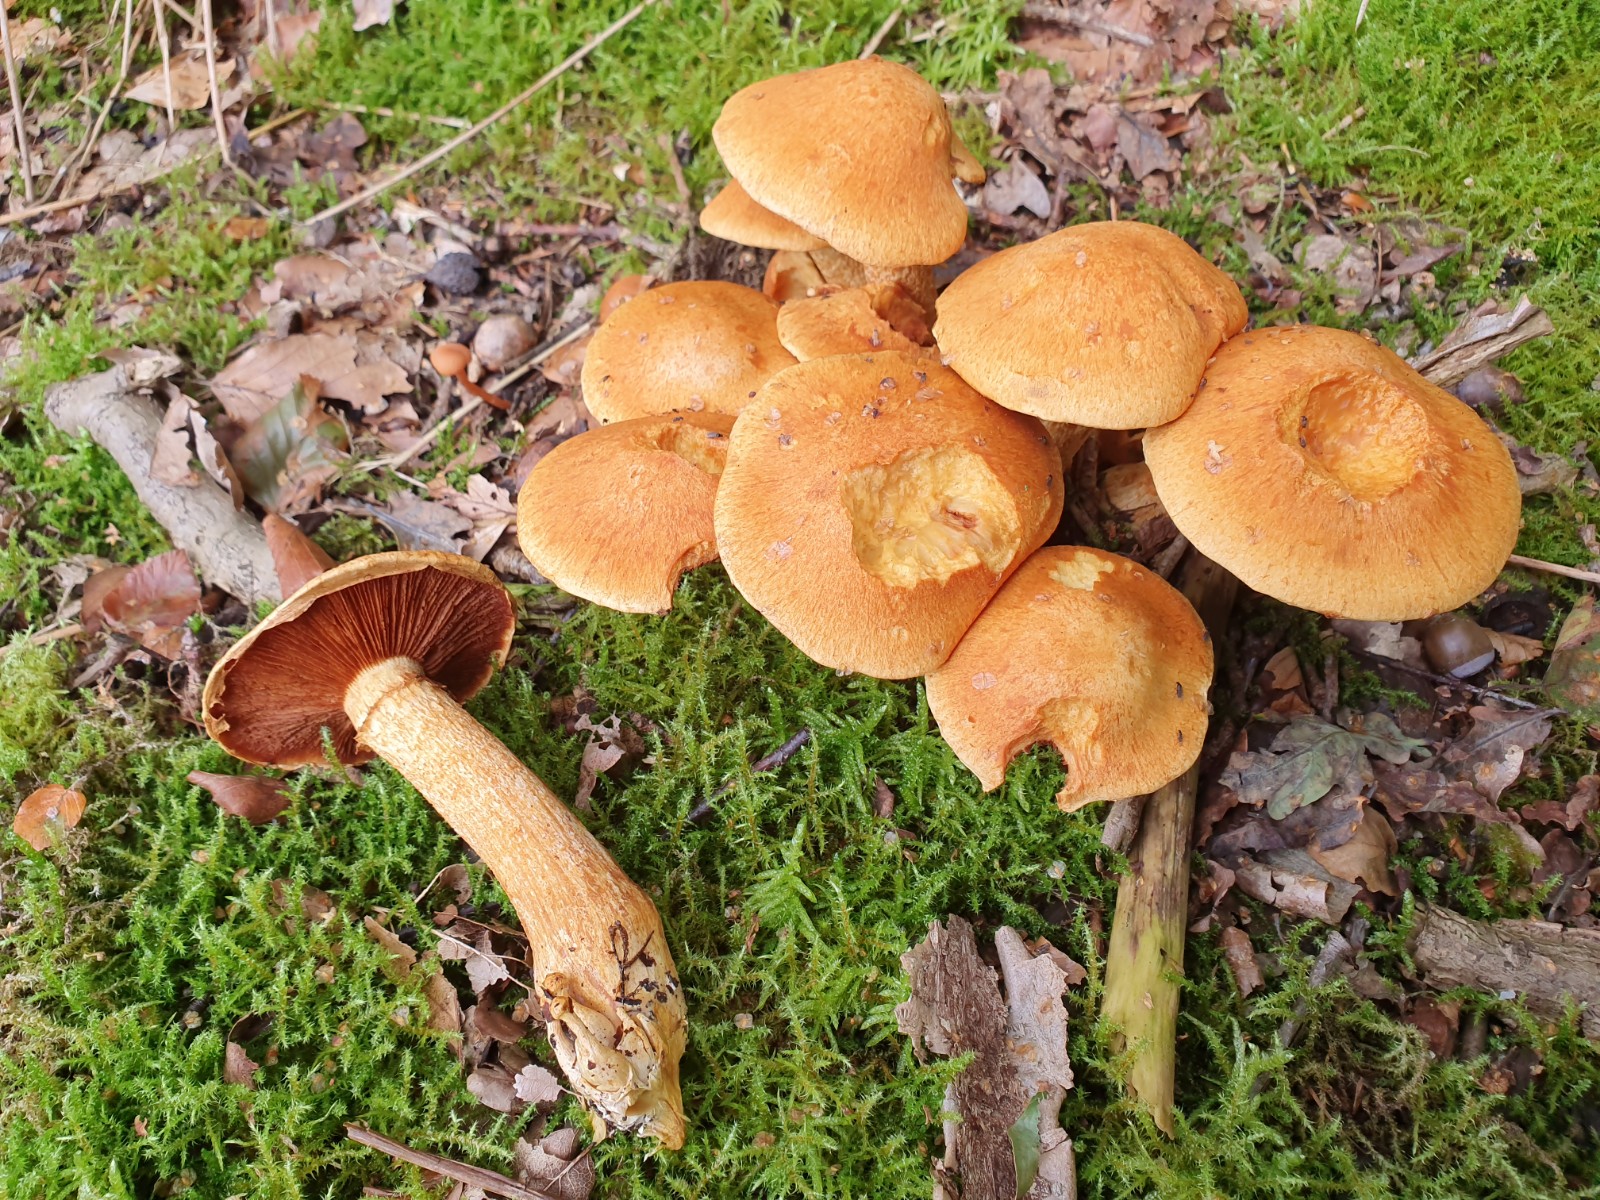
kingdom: Fungi
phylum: Basidiomycota
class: Agaricomycetes
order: Agaricales
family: Hymenogastraceae
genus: Gymnopilus
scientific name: Gymnopilus spectabilis
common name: fibret flammehat
